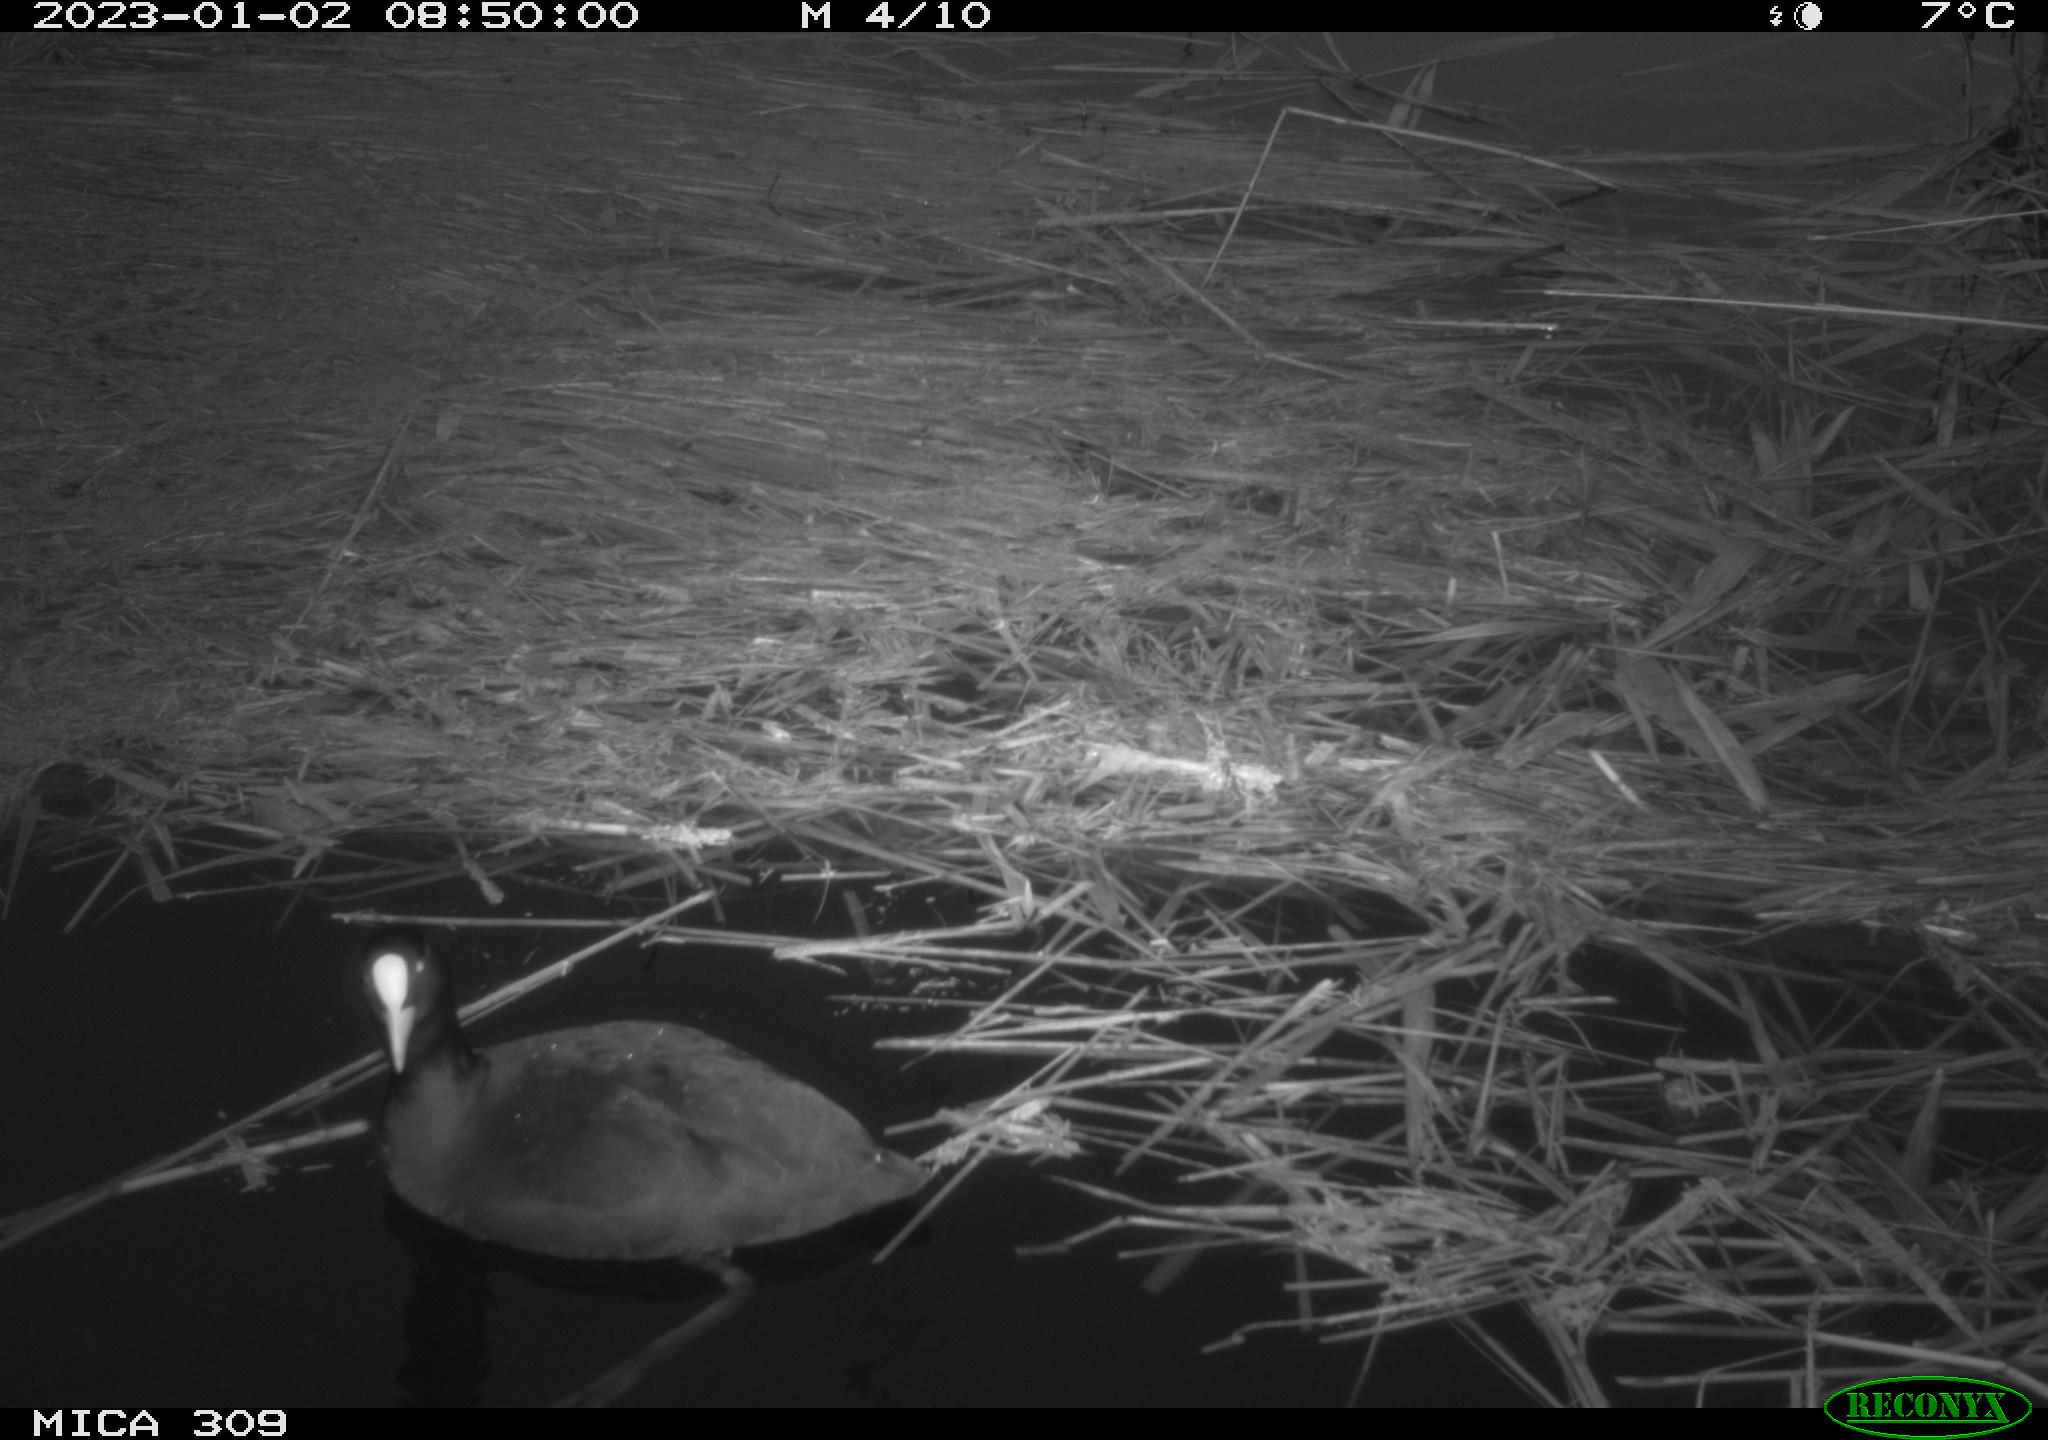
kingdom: Animalia
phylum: Chordata
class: Aves
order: Gruiformes
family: Rallidae
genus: Fulica
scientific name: Fulica atra
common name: Eurasian coot
